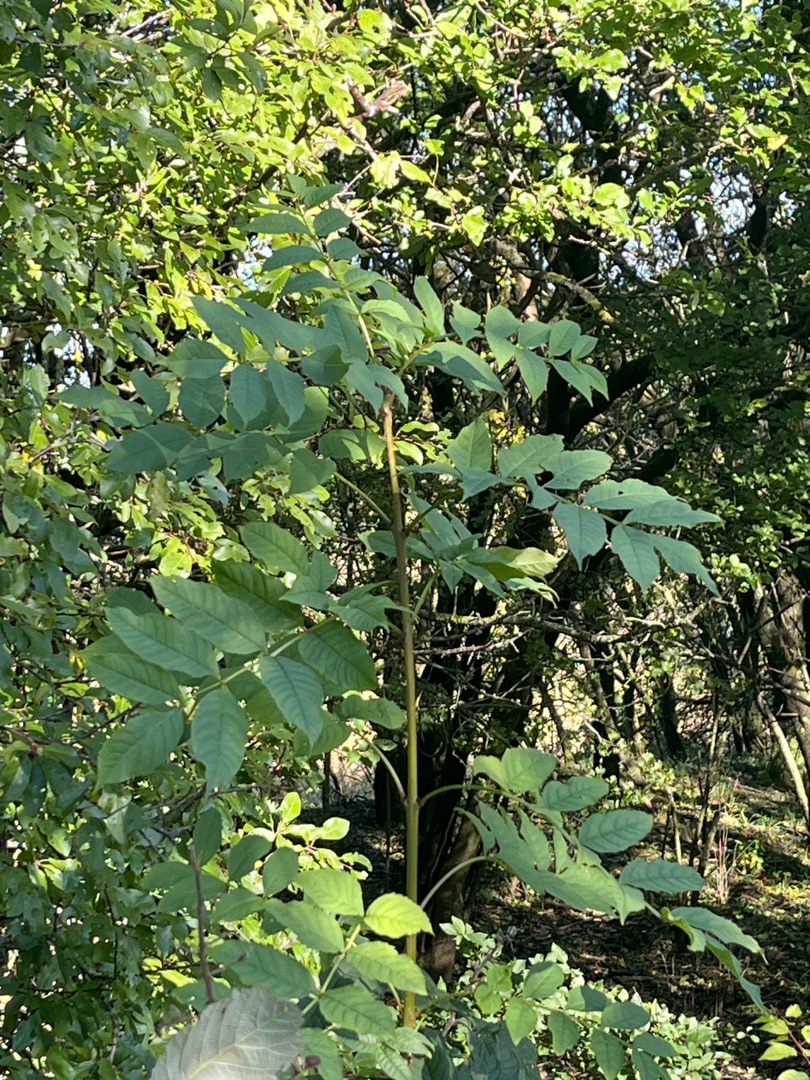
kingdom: Plantae
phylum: Tracheophyta
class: Magnoliopsida
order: Lamiales
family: Oleaceae
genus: Fraxinus
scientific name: Fraxinus excelsior
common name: Ask
